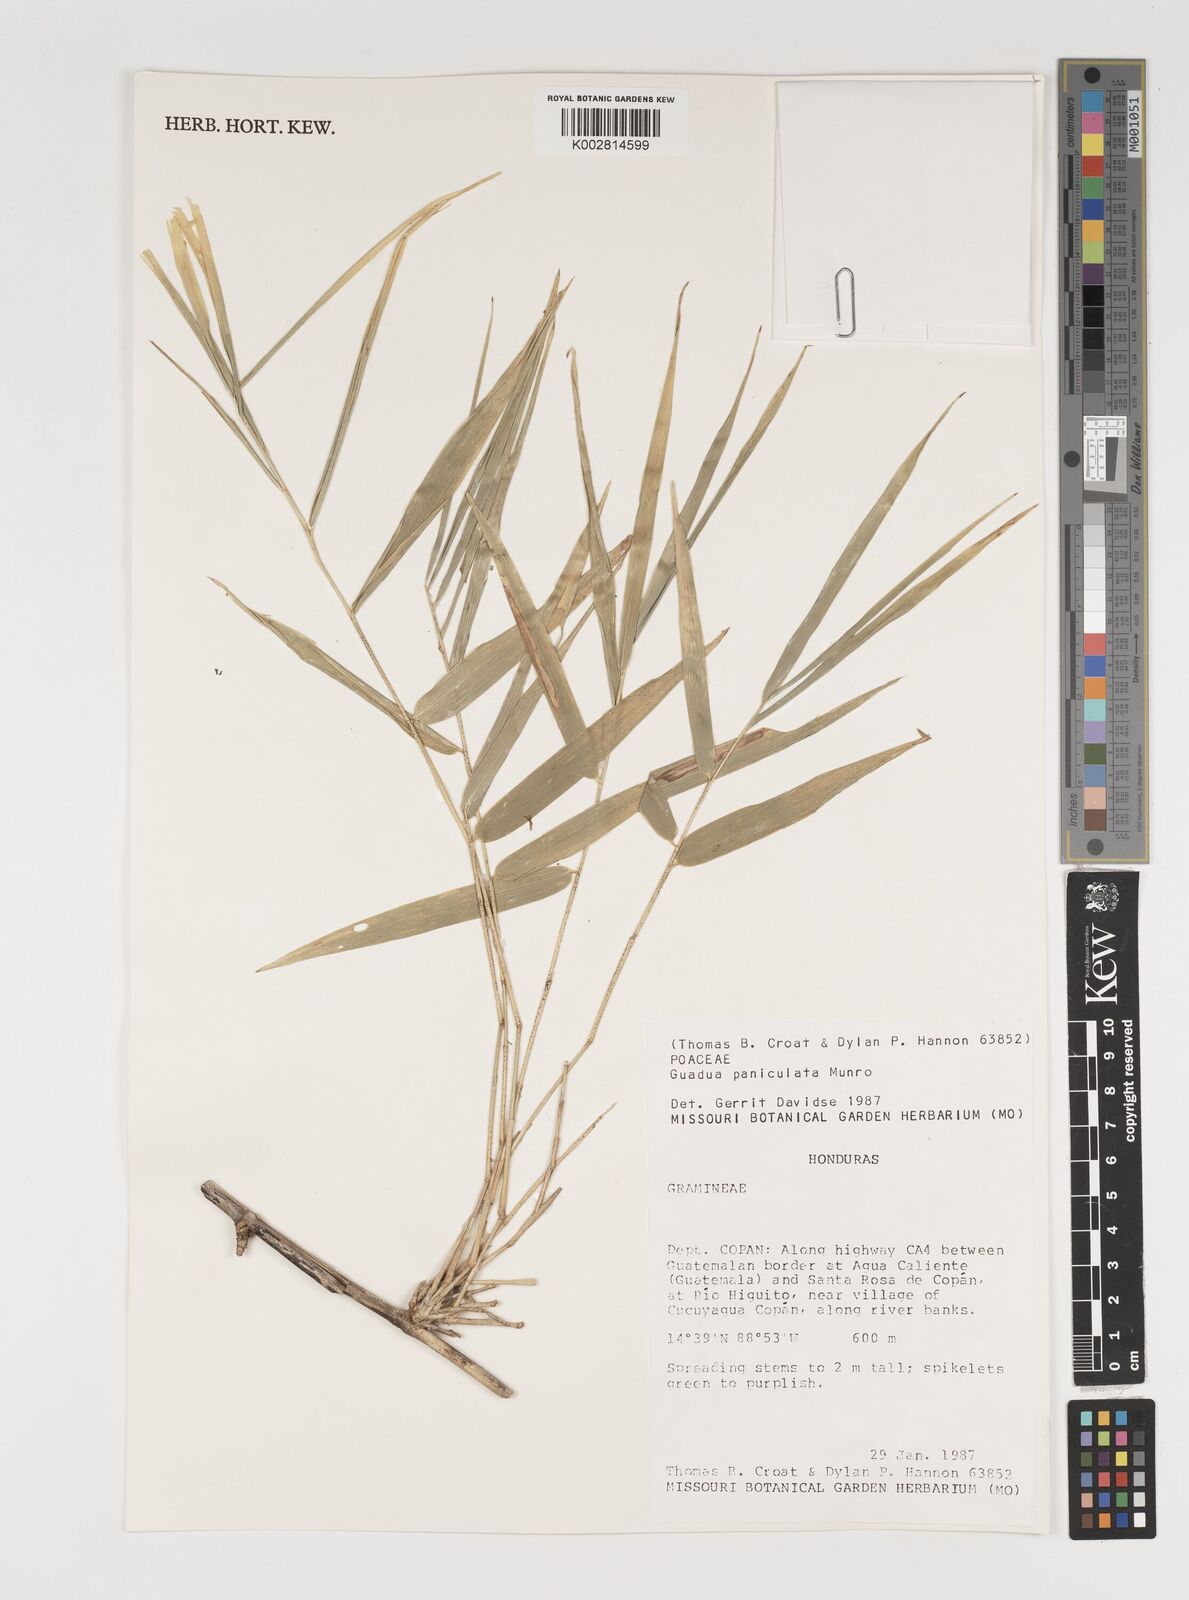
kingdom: Plantae
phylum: Tracheophyta
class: Liliopsida
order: Poales
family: Poaceae
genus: Guadua
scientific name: Guadua paniculata
